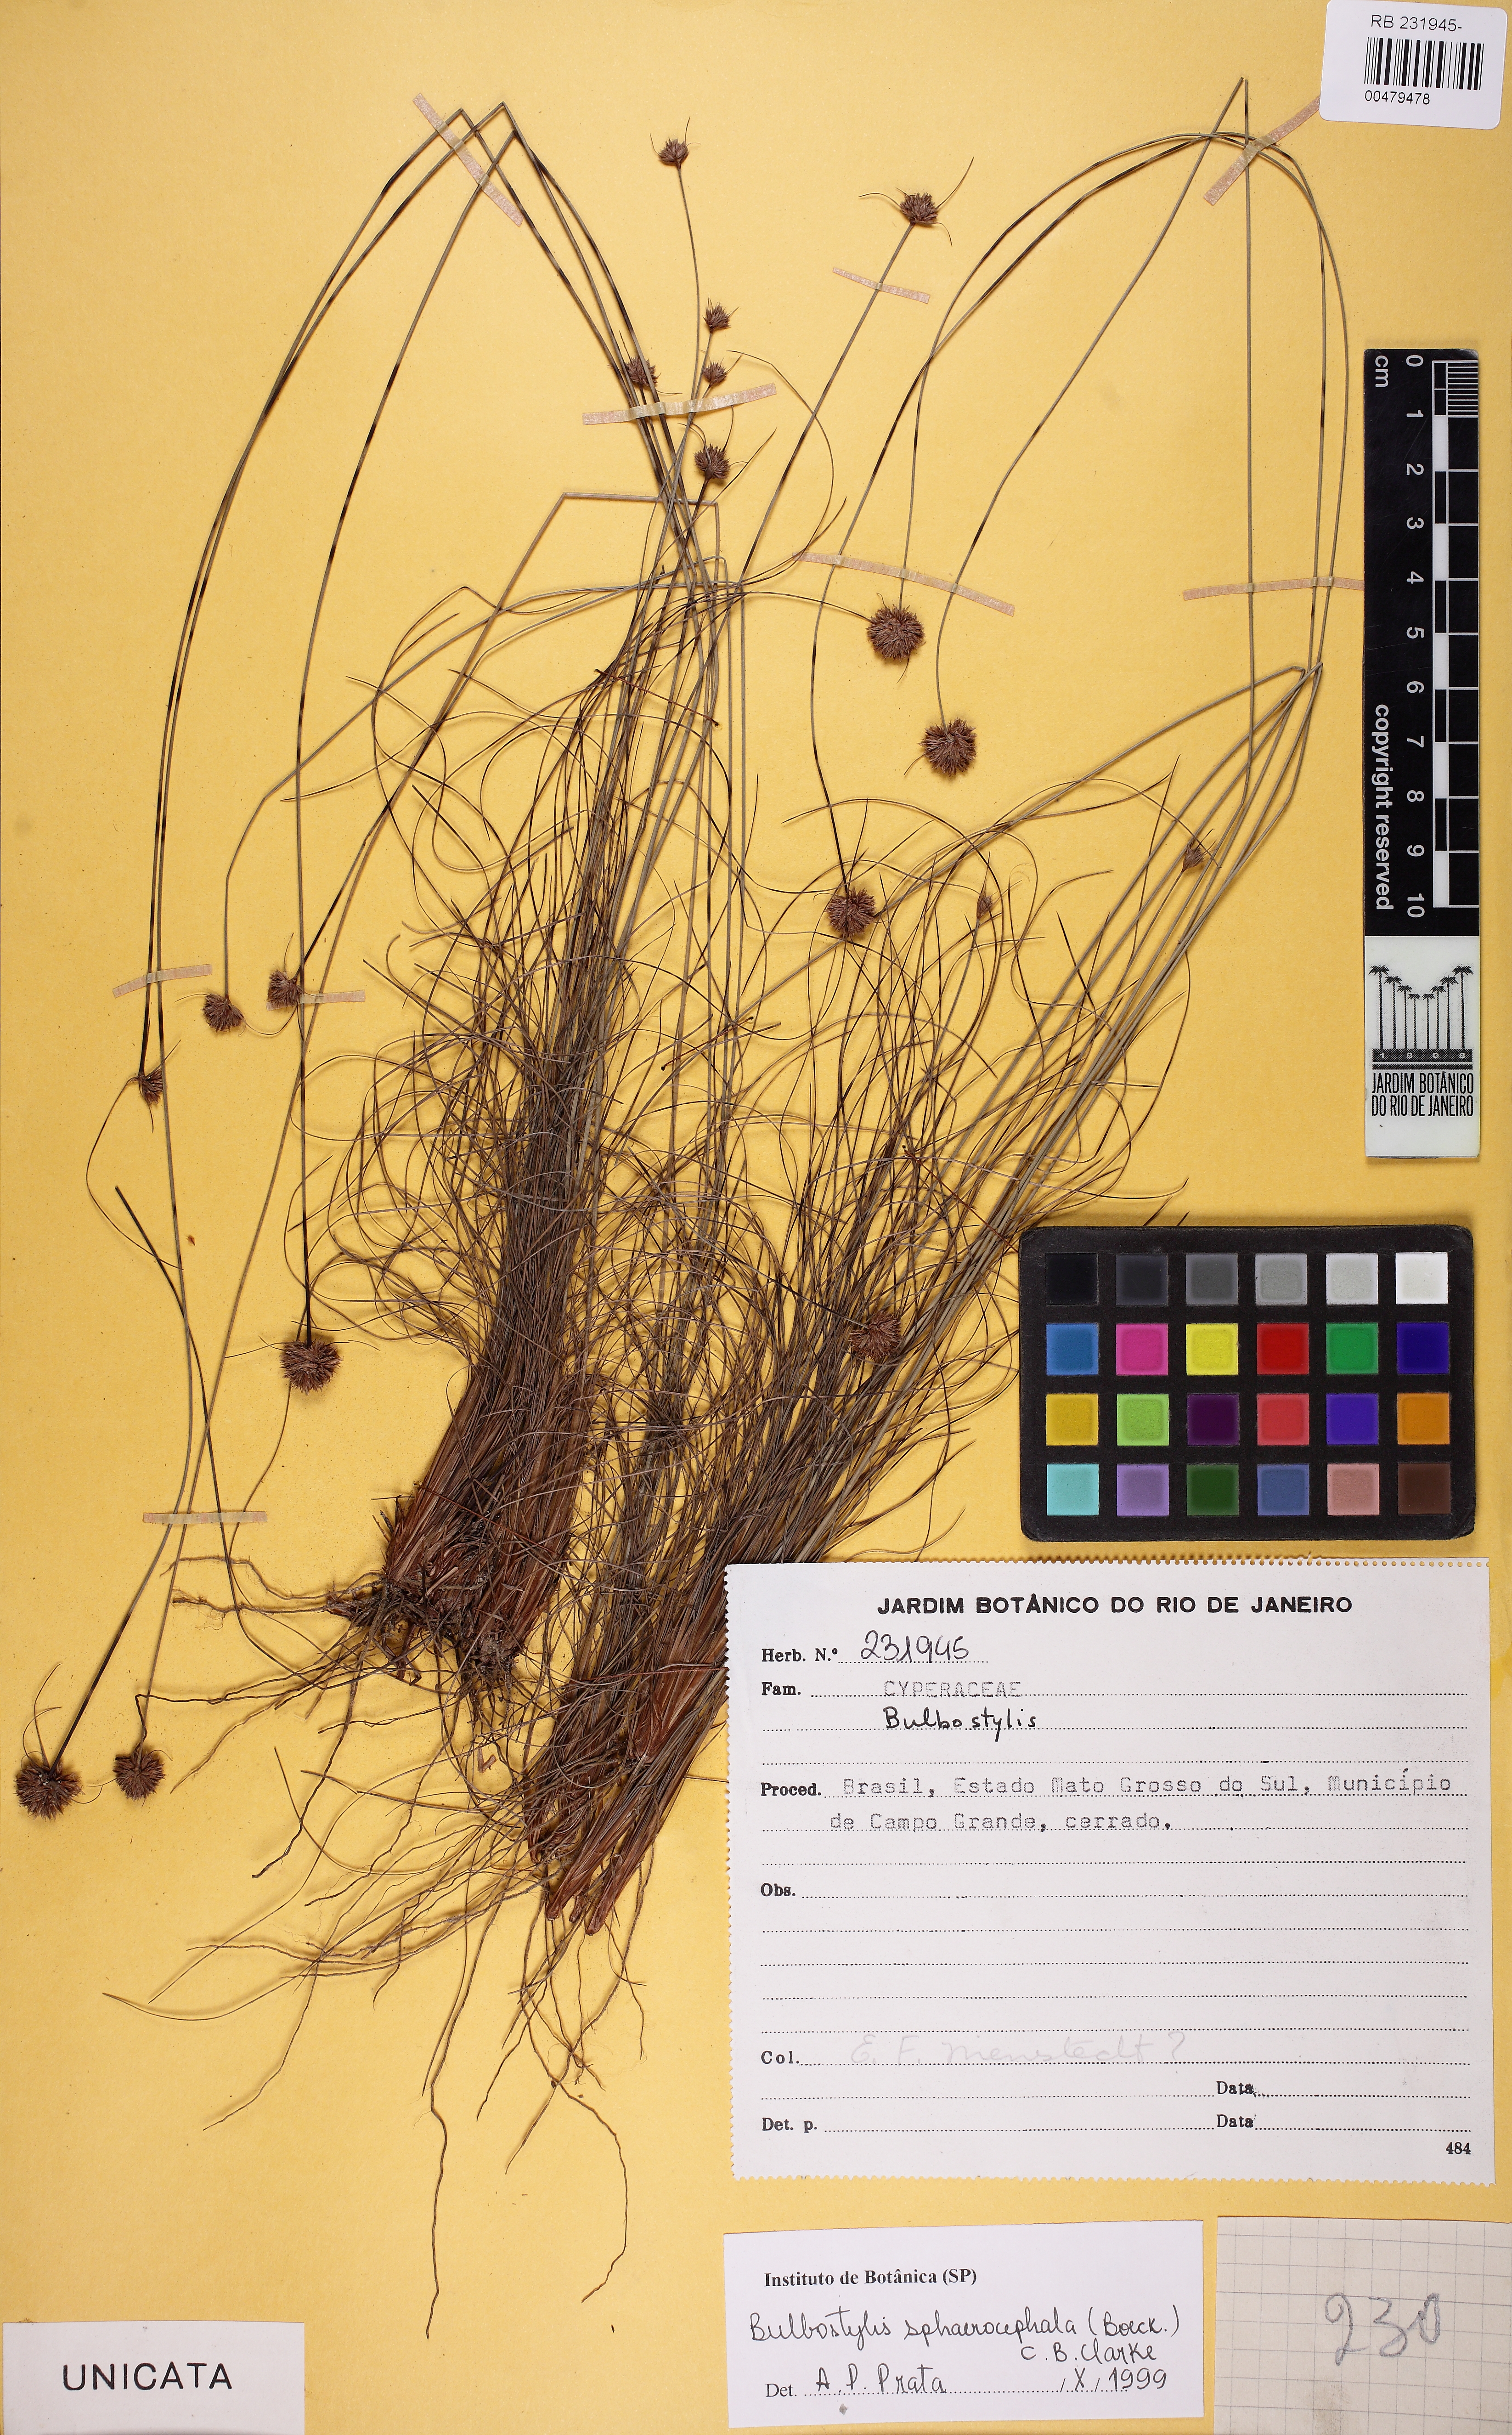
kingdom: Plantae
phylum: Tracheophyta
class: Liliopsida
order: Poales
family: Cyperaceae
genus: Bulbostylis
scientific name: Bulbostylis sphaerocephala
